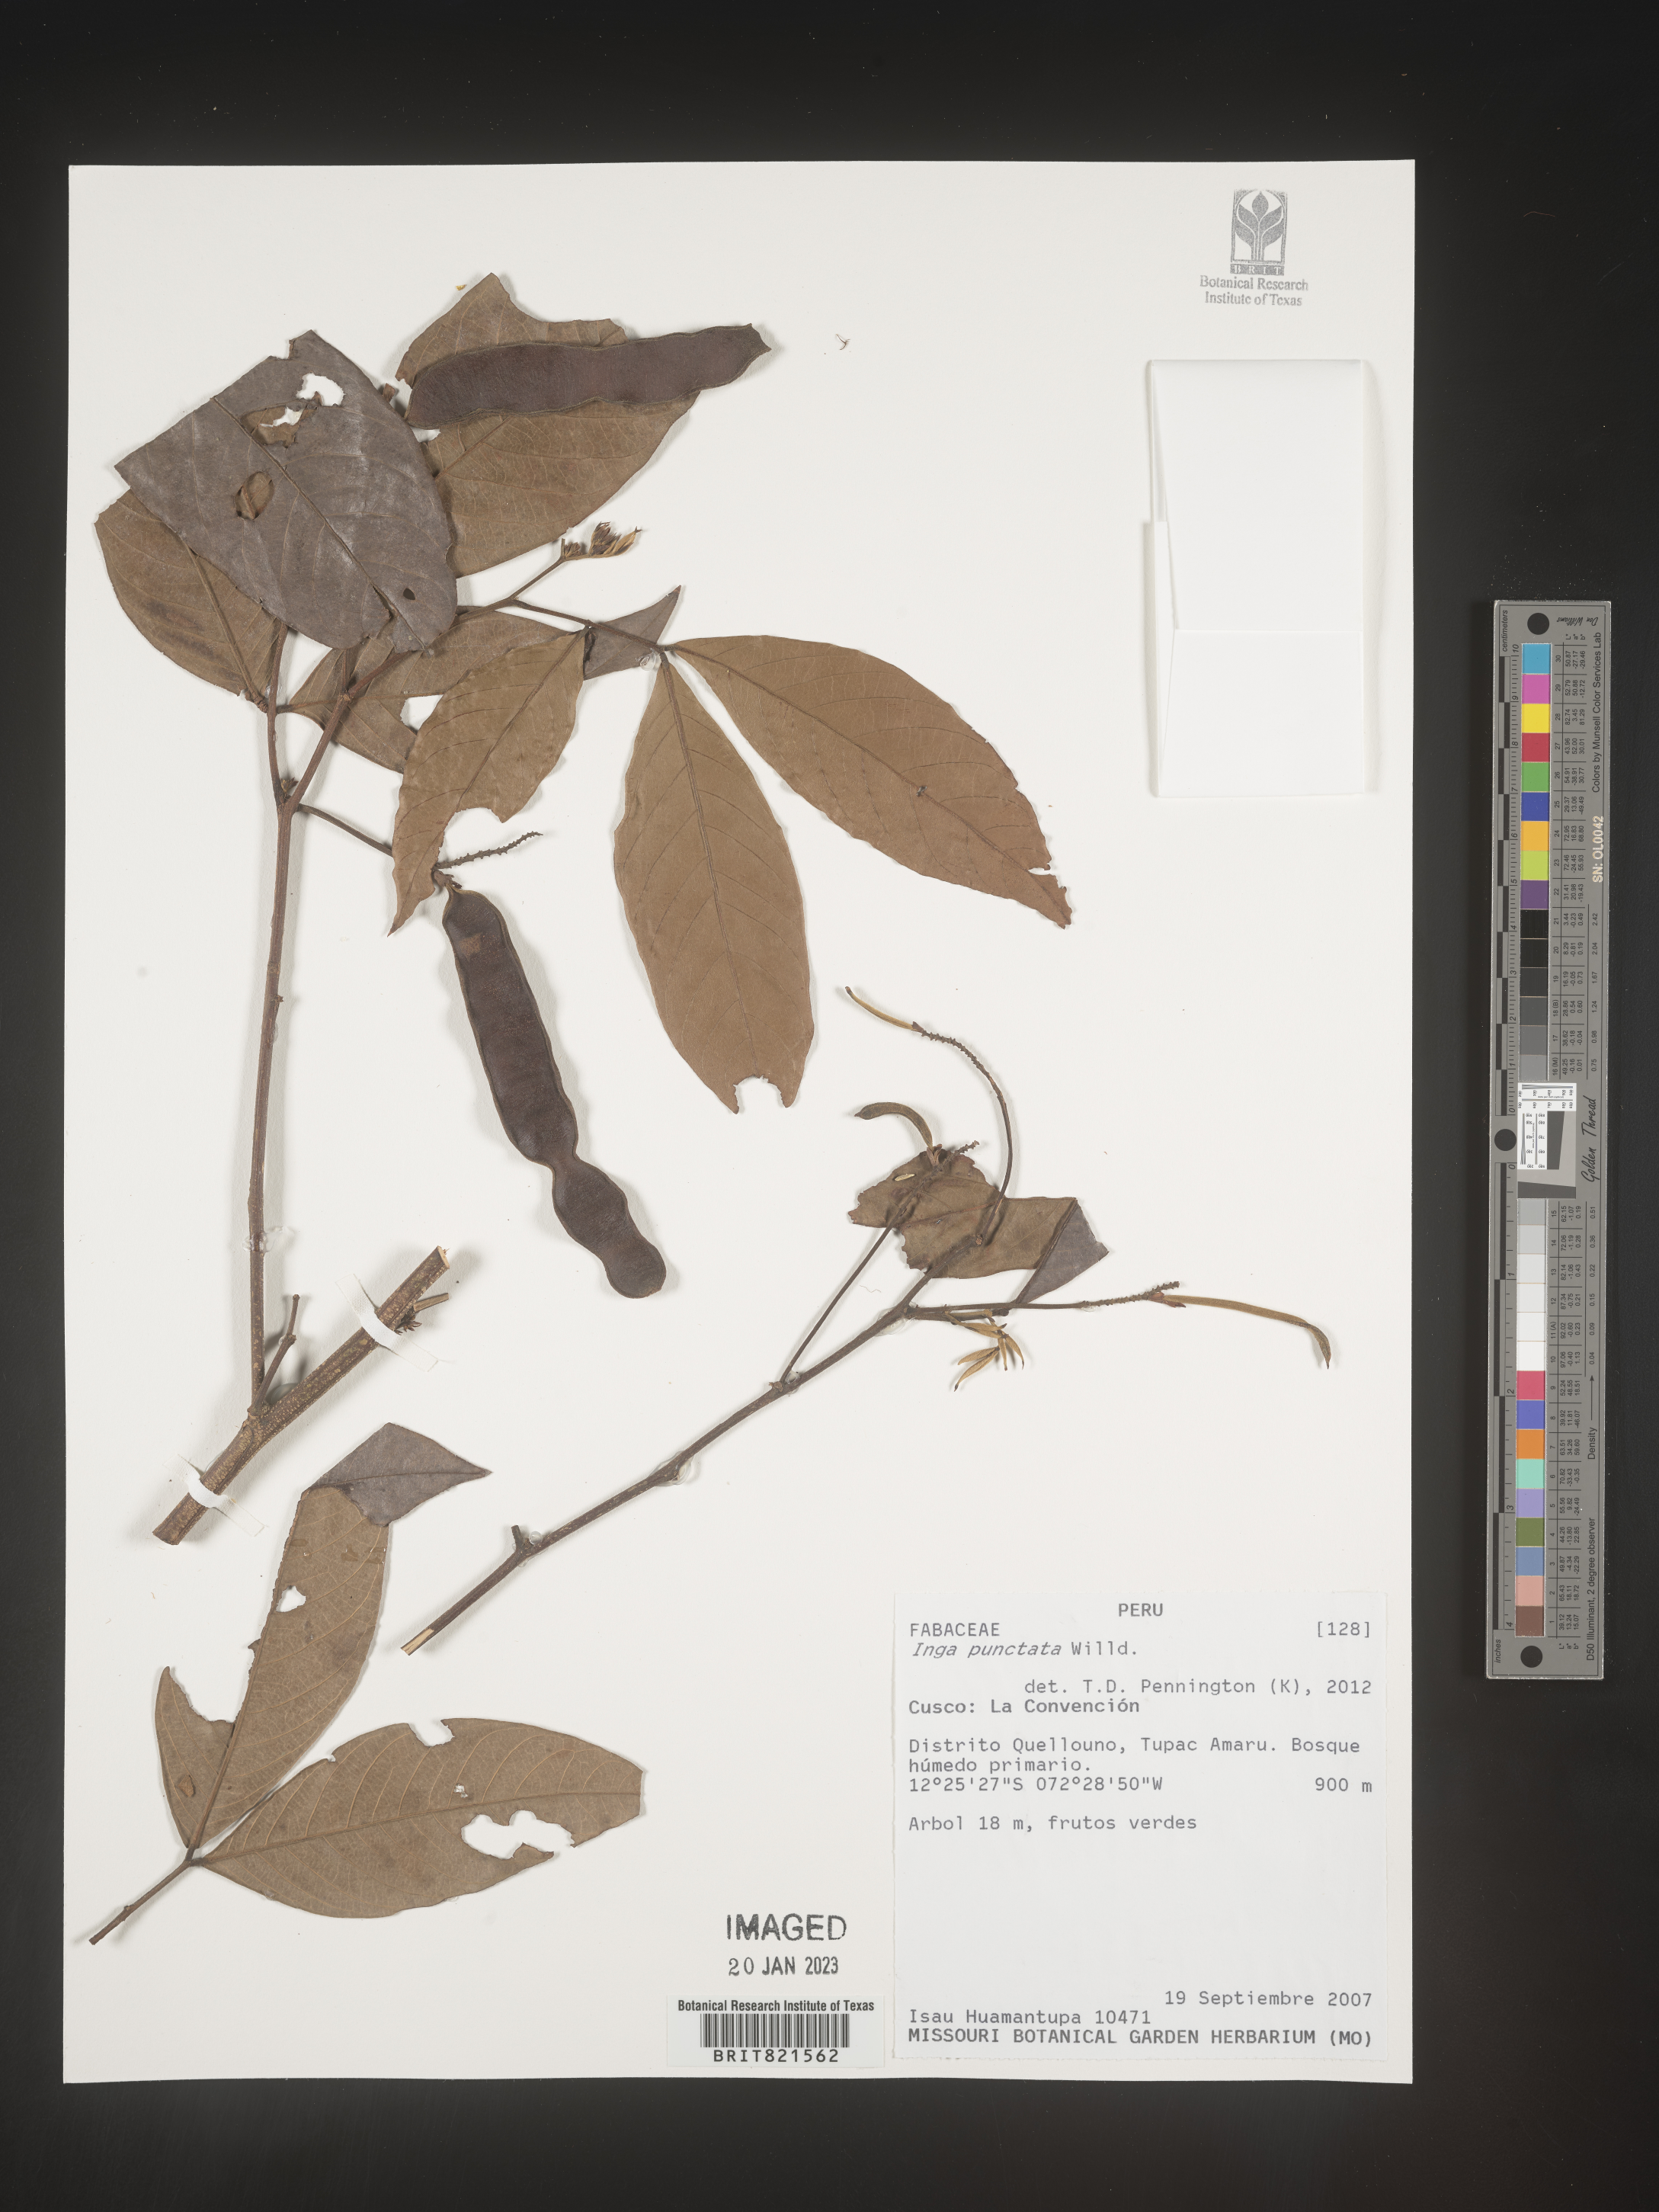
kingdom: Plantae
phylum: Tracheophyta
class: Magnoliopsida
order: Fabales
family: Fabaceae
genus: Inga
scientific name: Inga
